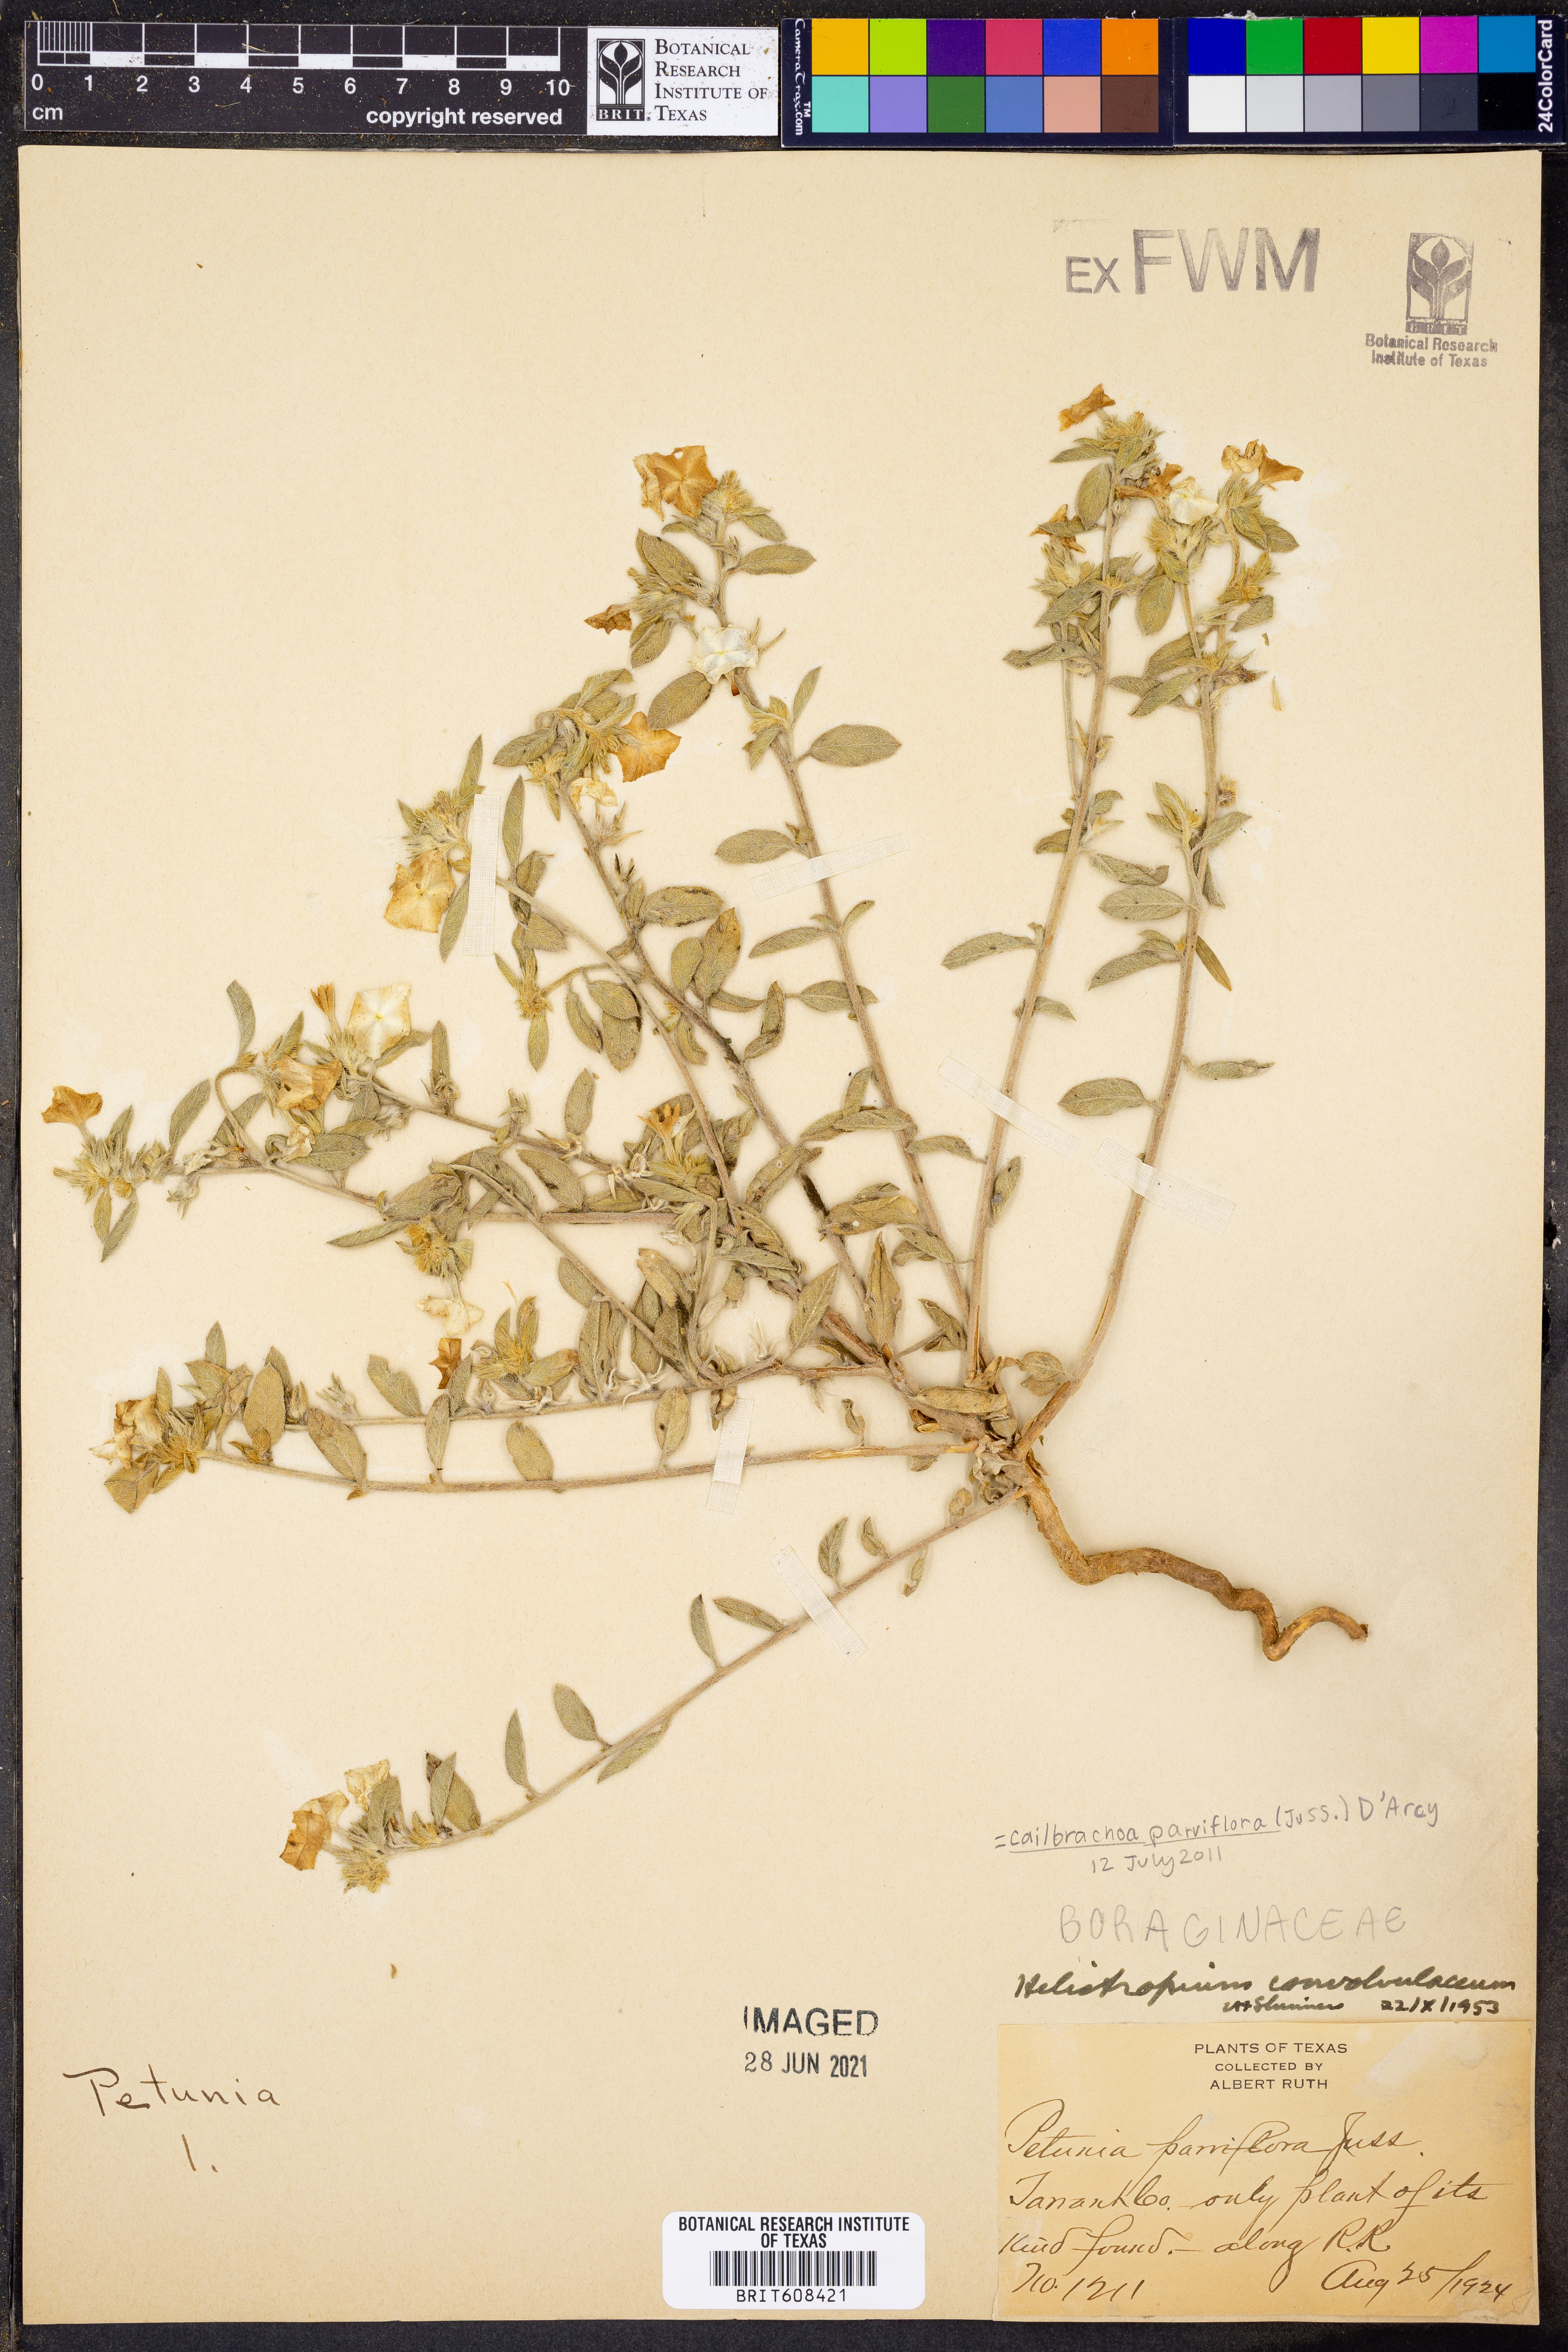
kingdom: Plantae
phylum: Tracheophyta
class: Magnoliopsida
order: Solanales
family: Solanaceae
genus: Calibrachoa
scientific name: Calibrachoa parviflora
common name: Seaside petunia
